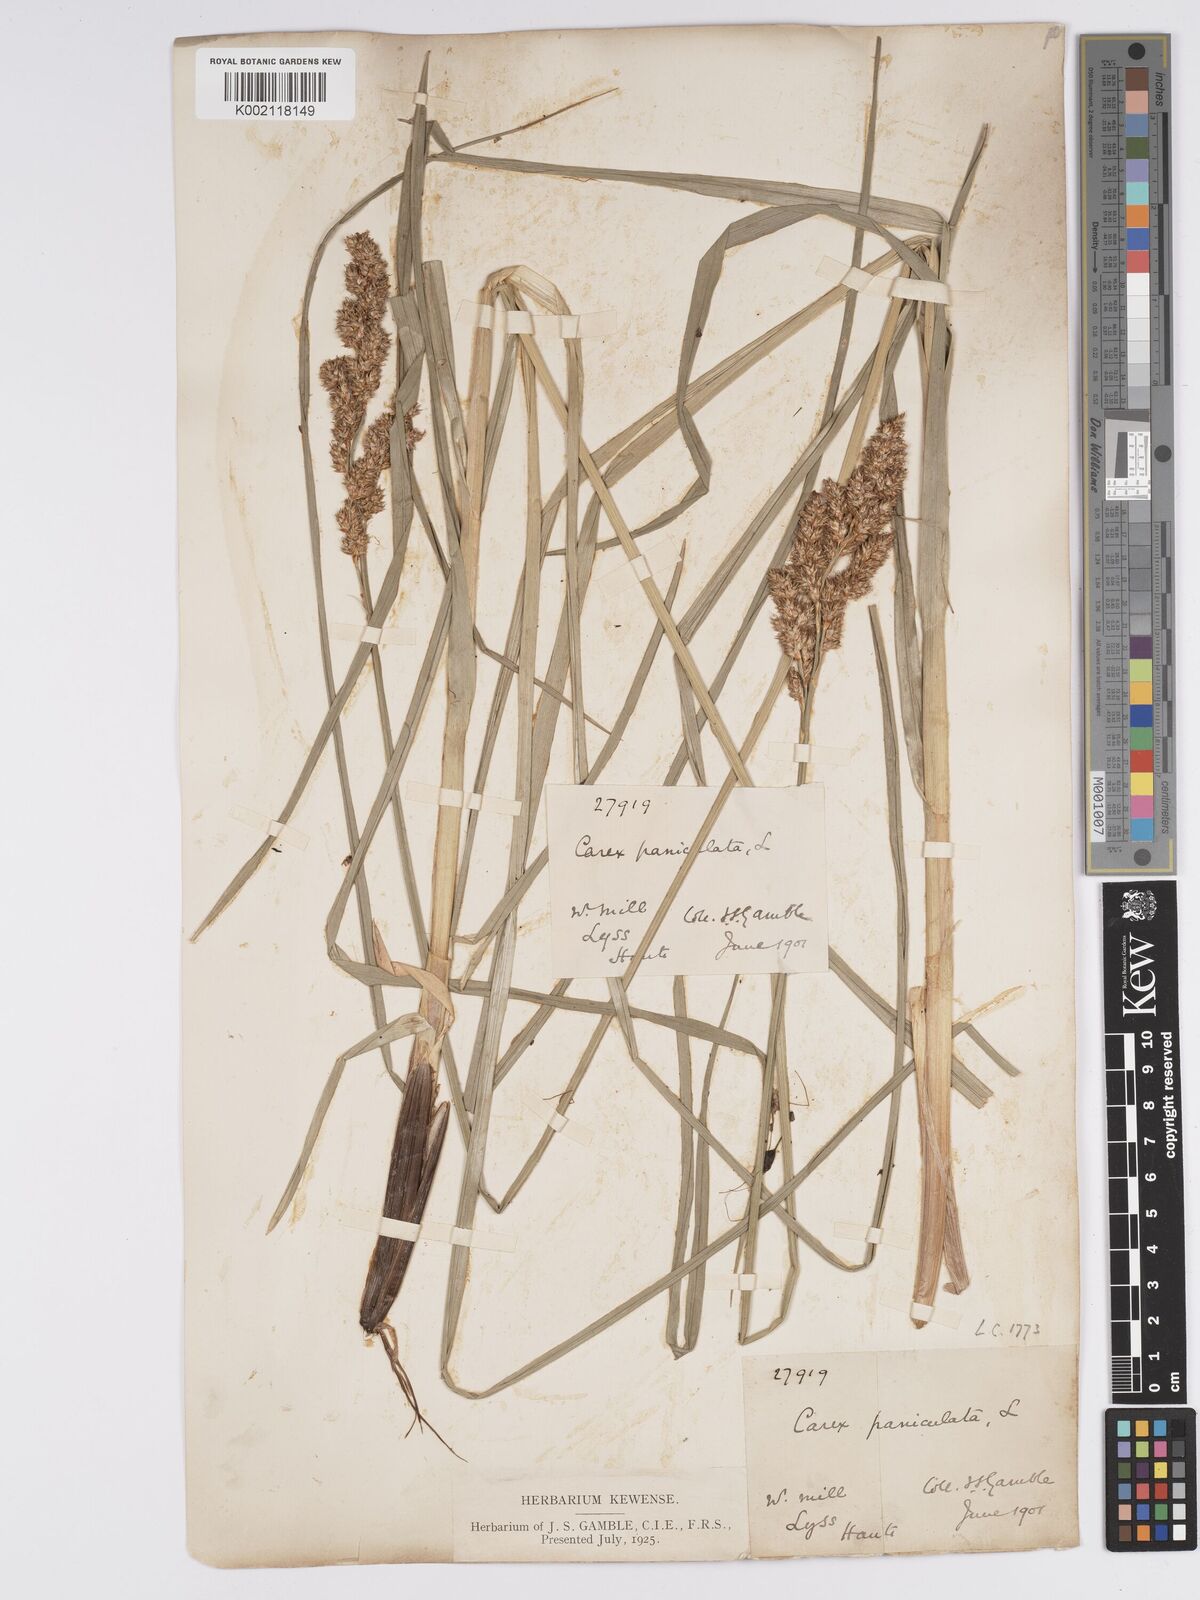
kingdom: Plantae
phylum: Tracheophyta
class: Liliopsida
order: Poales
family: Cyperaceae
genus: Carex
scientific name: Carex paniculata
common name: Greater tussock-sedge
